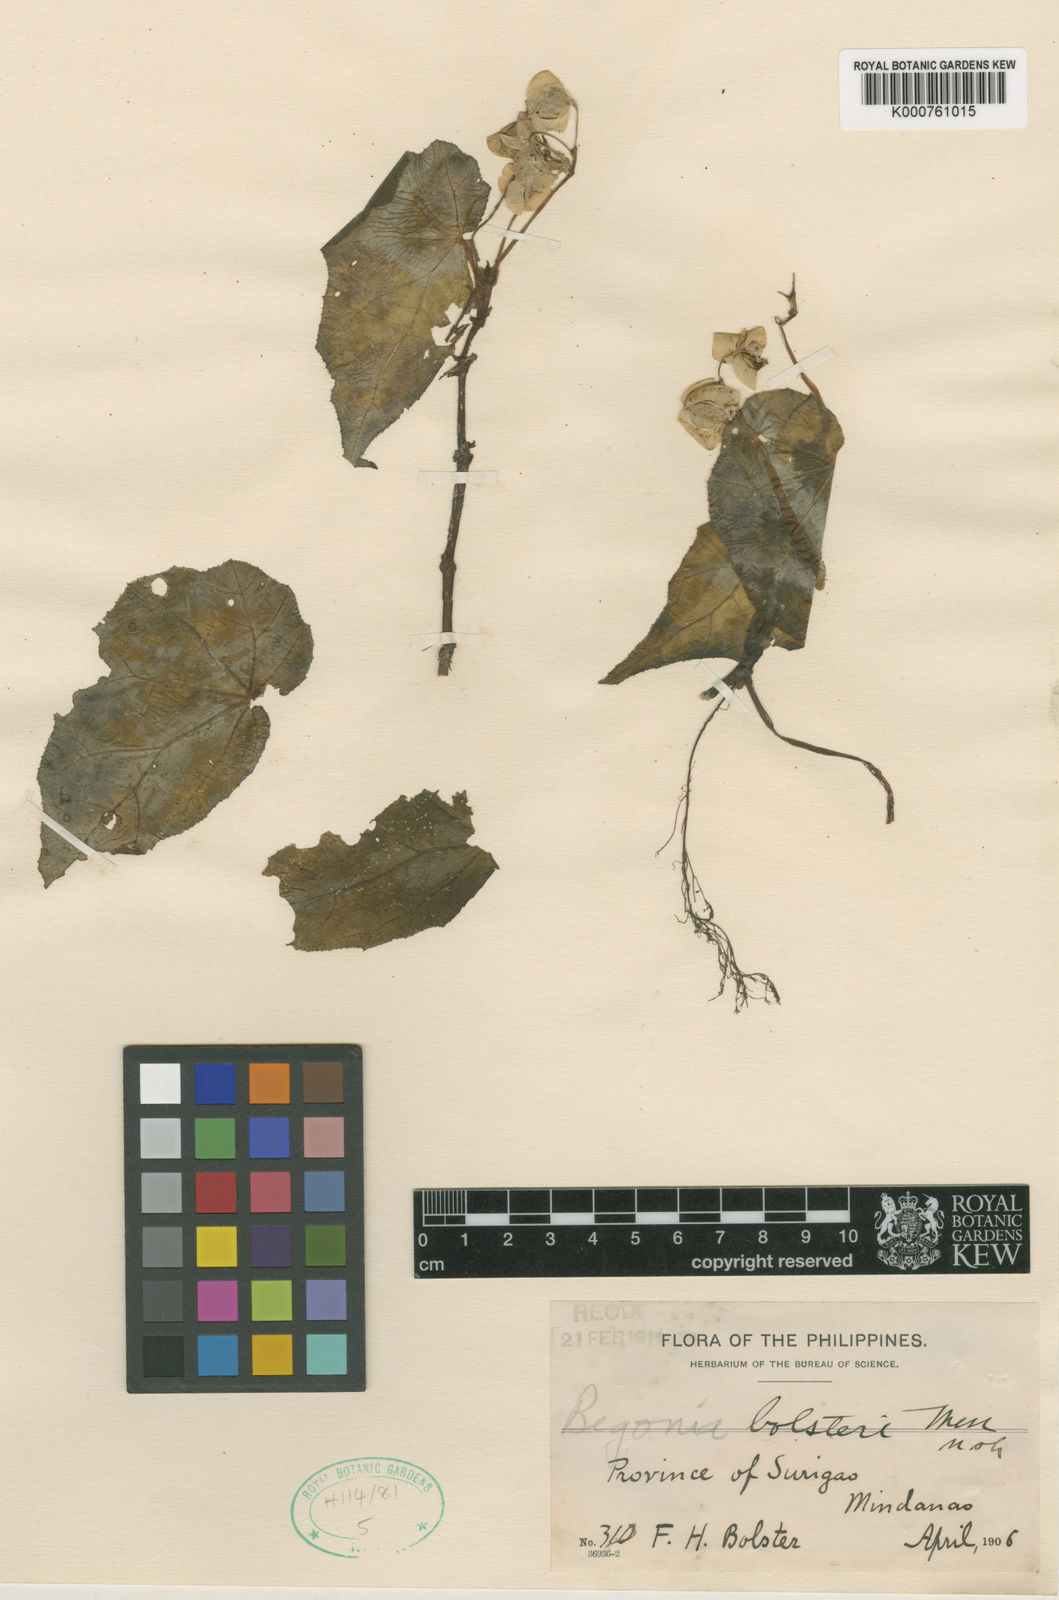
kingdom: Plantae
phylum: Tracheophyta
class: Magnoliopsida
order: Cucurbitales
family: Begoniaceae
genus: Begonia
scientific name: Begonia colorata
